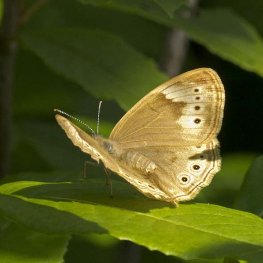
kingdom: Animalia
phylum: Arthropoda
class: Insecta
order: Lepidoptera
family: Nymphalidae
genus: Lethe
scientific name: Lethe eurydice
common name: Eyed Brown
